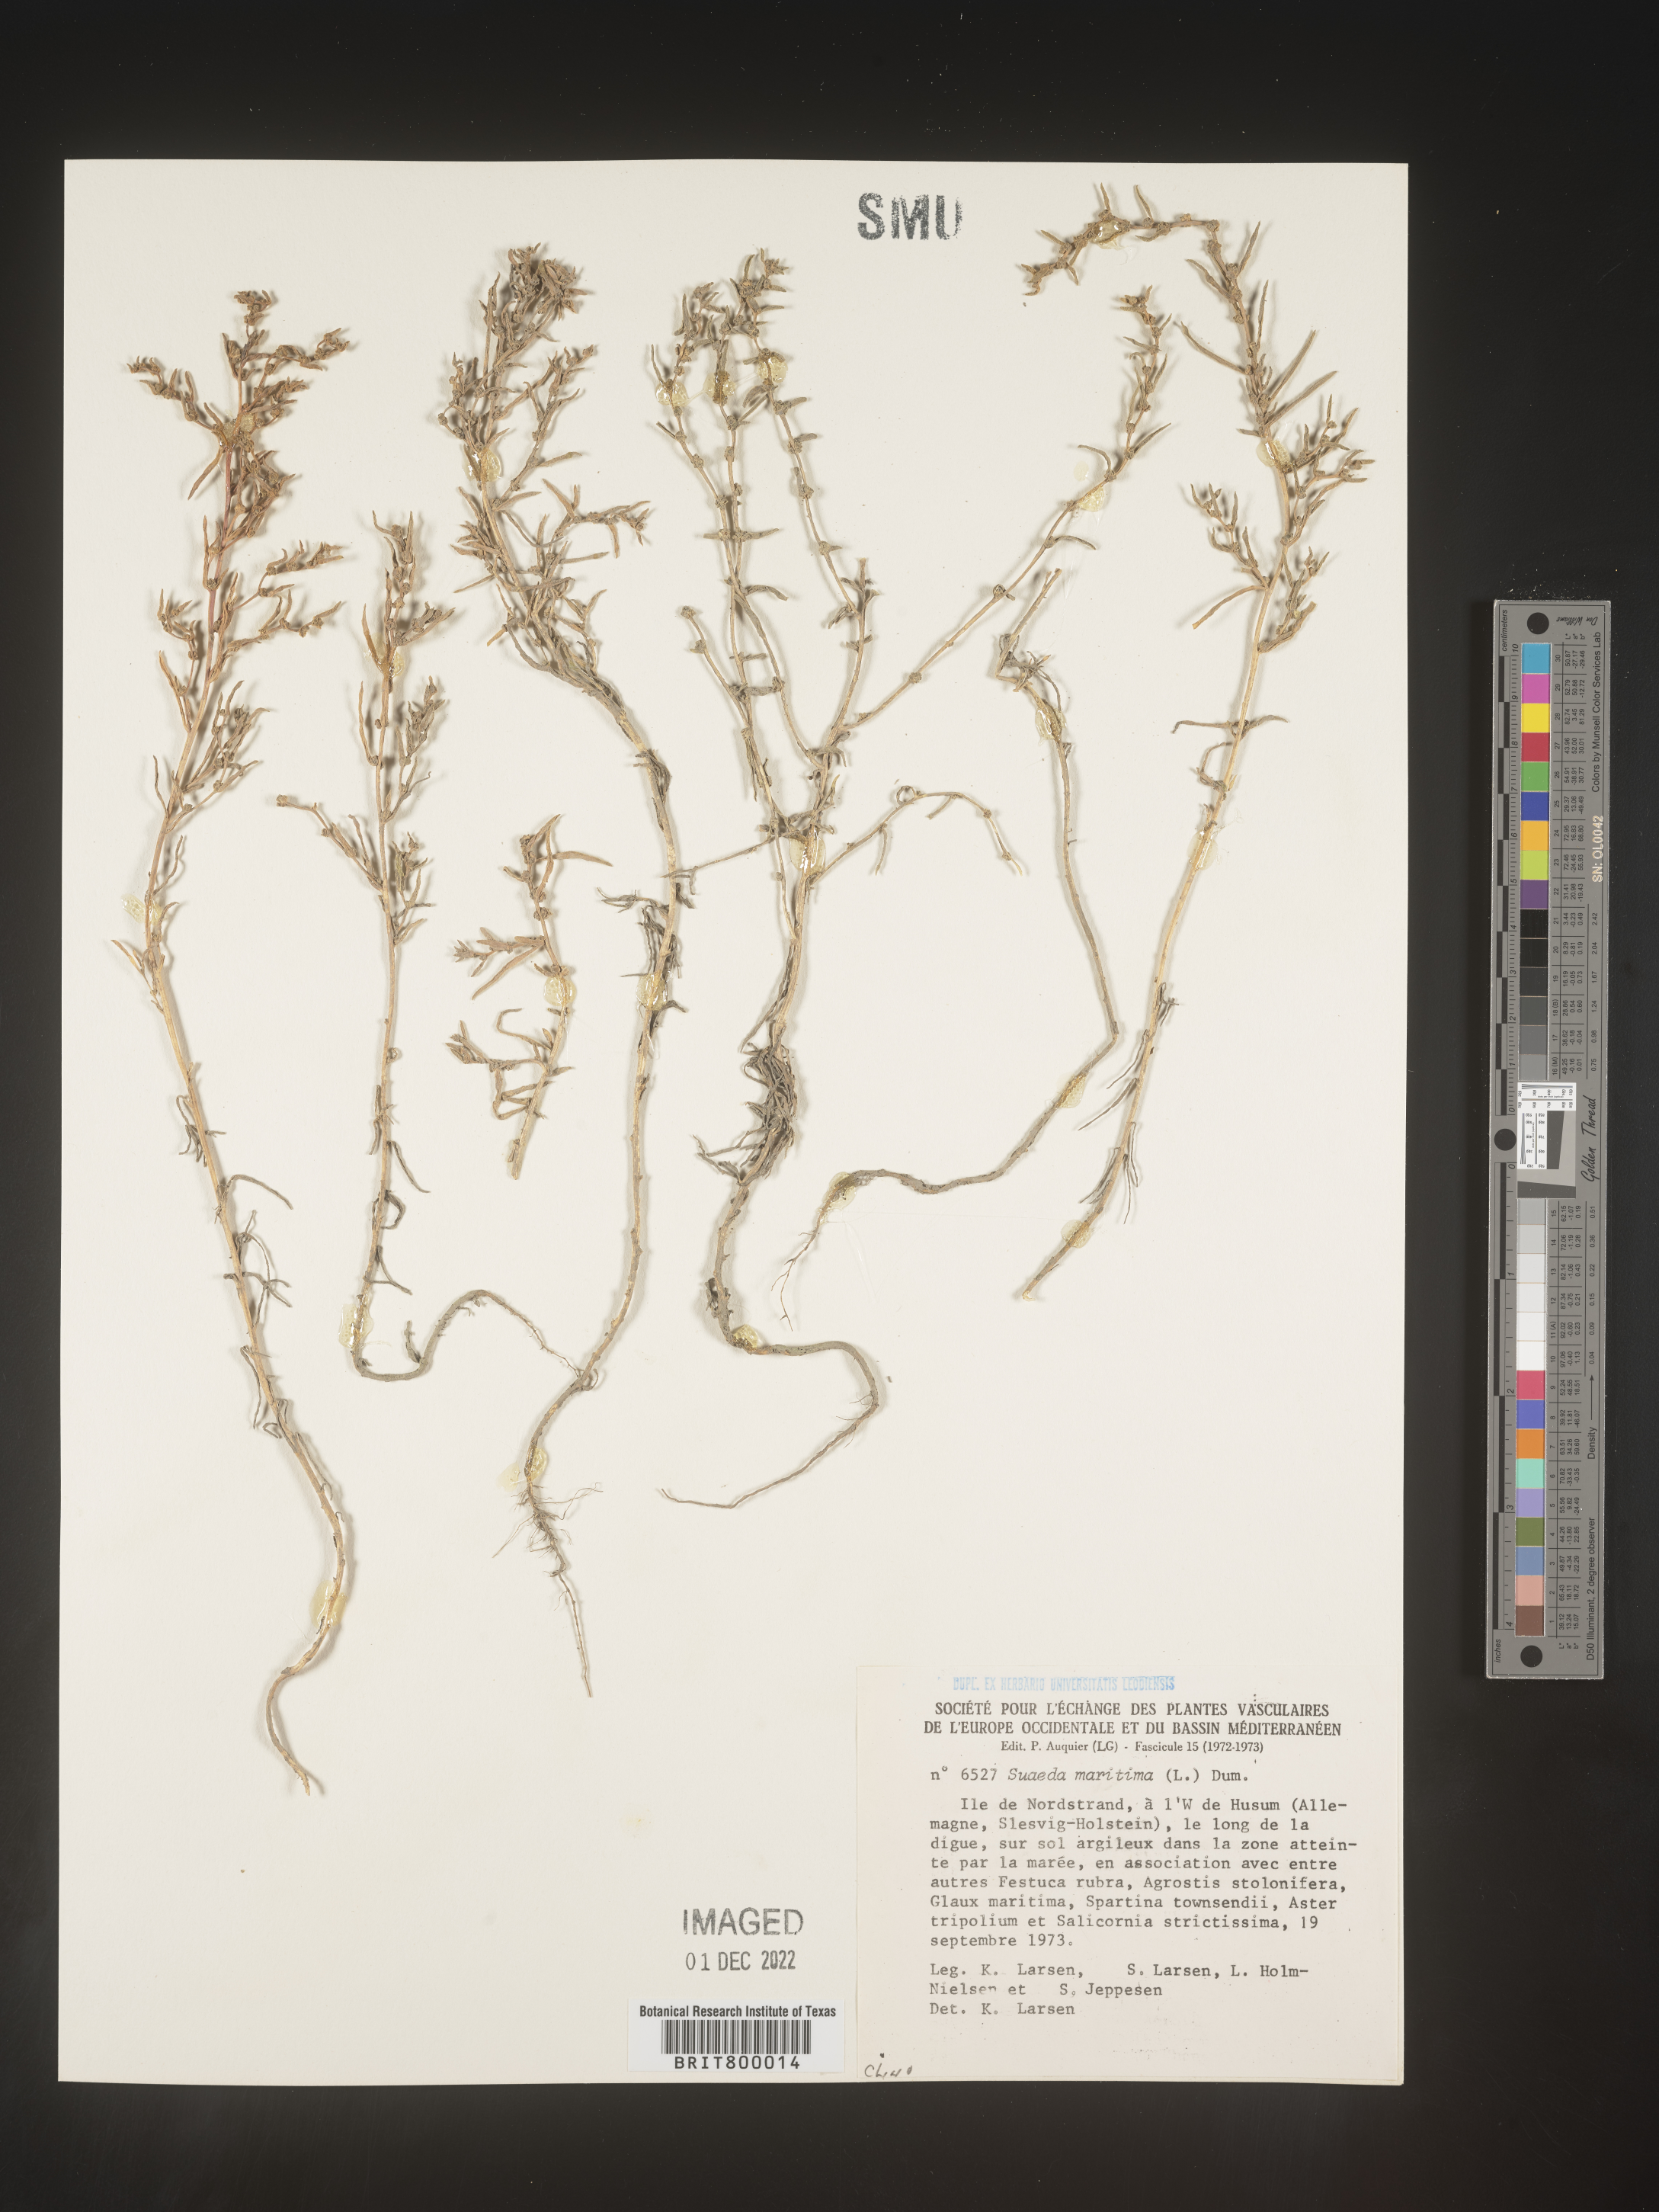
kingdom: Plantae
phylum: Tracheophyta
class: Magnoliopsida
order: Caryophyllales
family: Amaranthaceae
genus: Suaeda
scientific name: Suaeda
